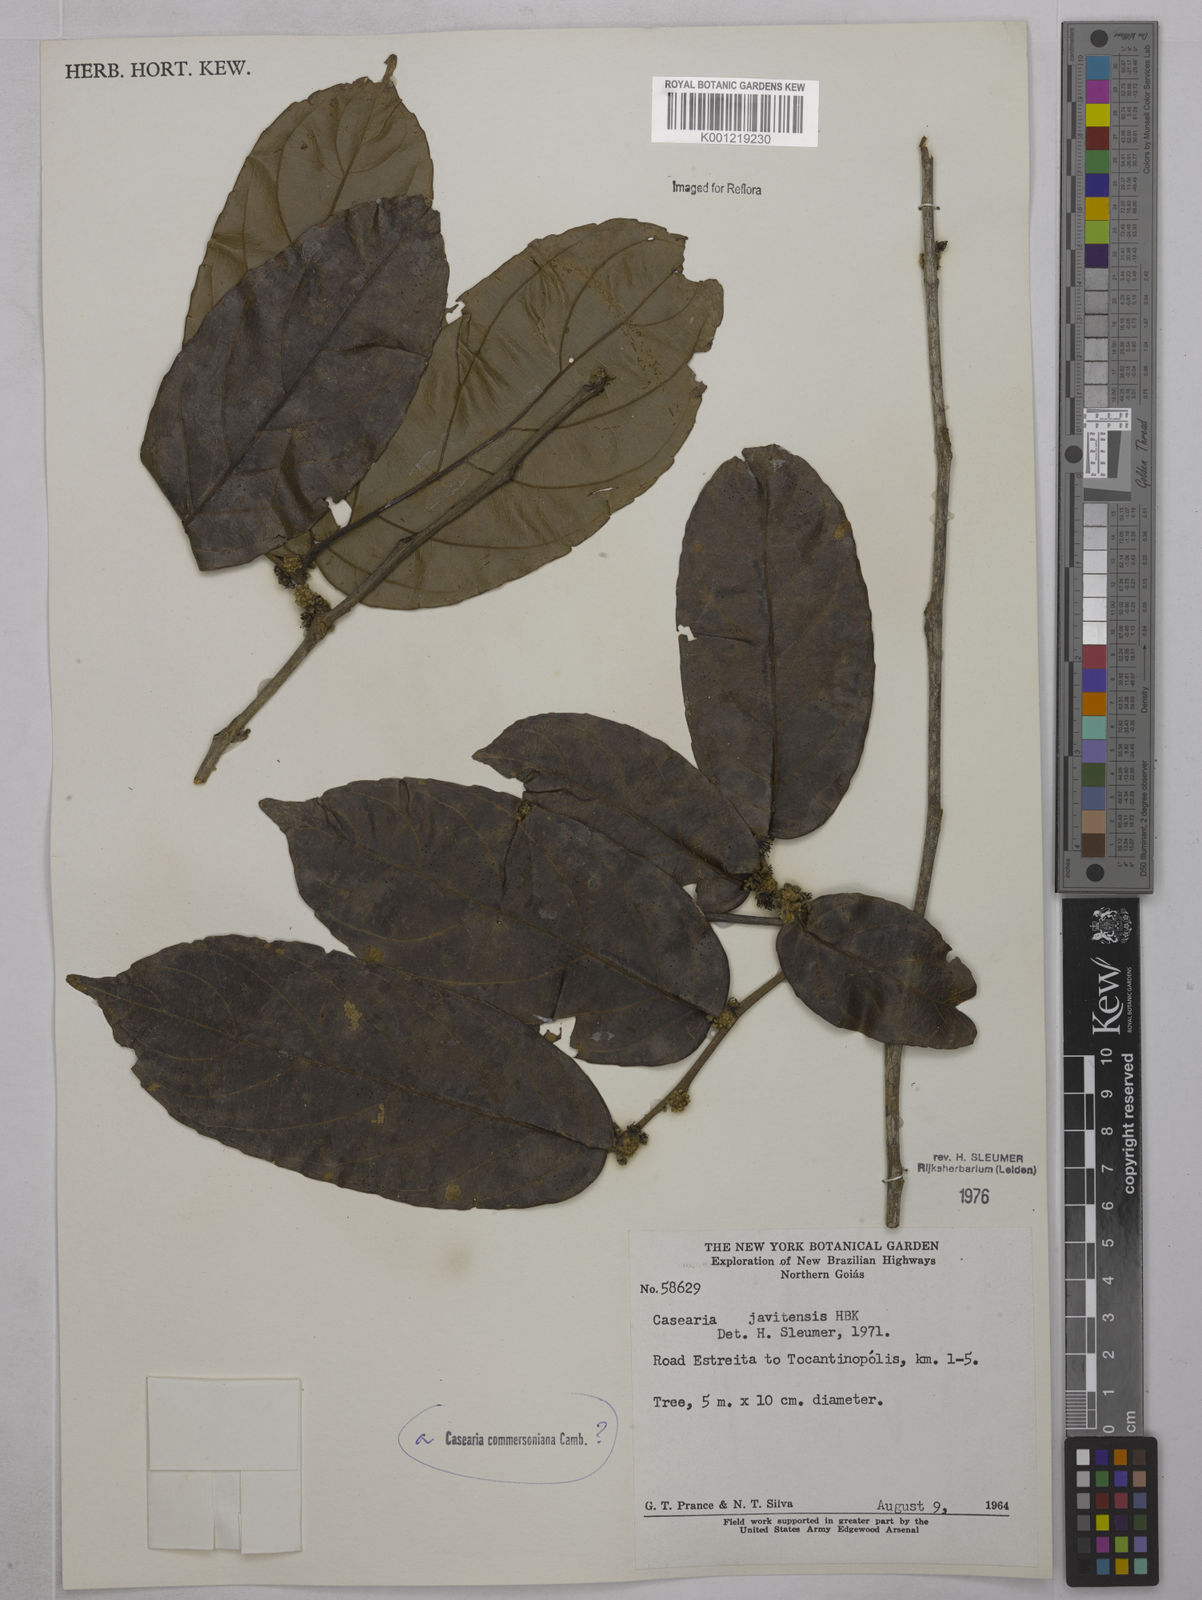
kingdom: Plantae
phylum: Tracheophyta
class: Magnoliopsida
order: Malpighiales
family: Salicaceae
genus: Piparea
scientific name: Piparea multiflora
